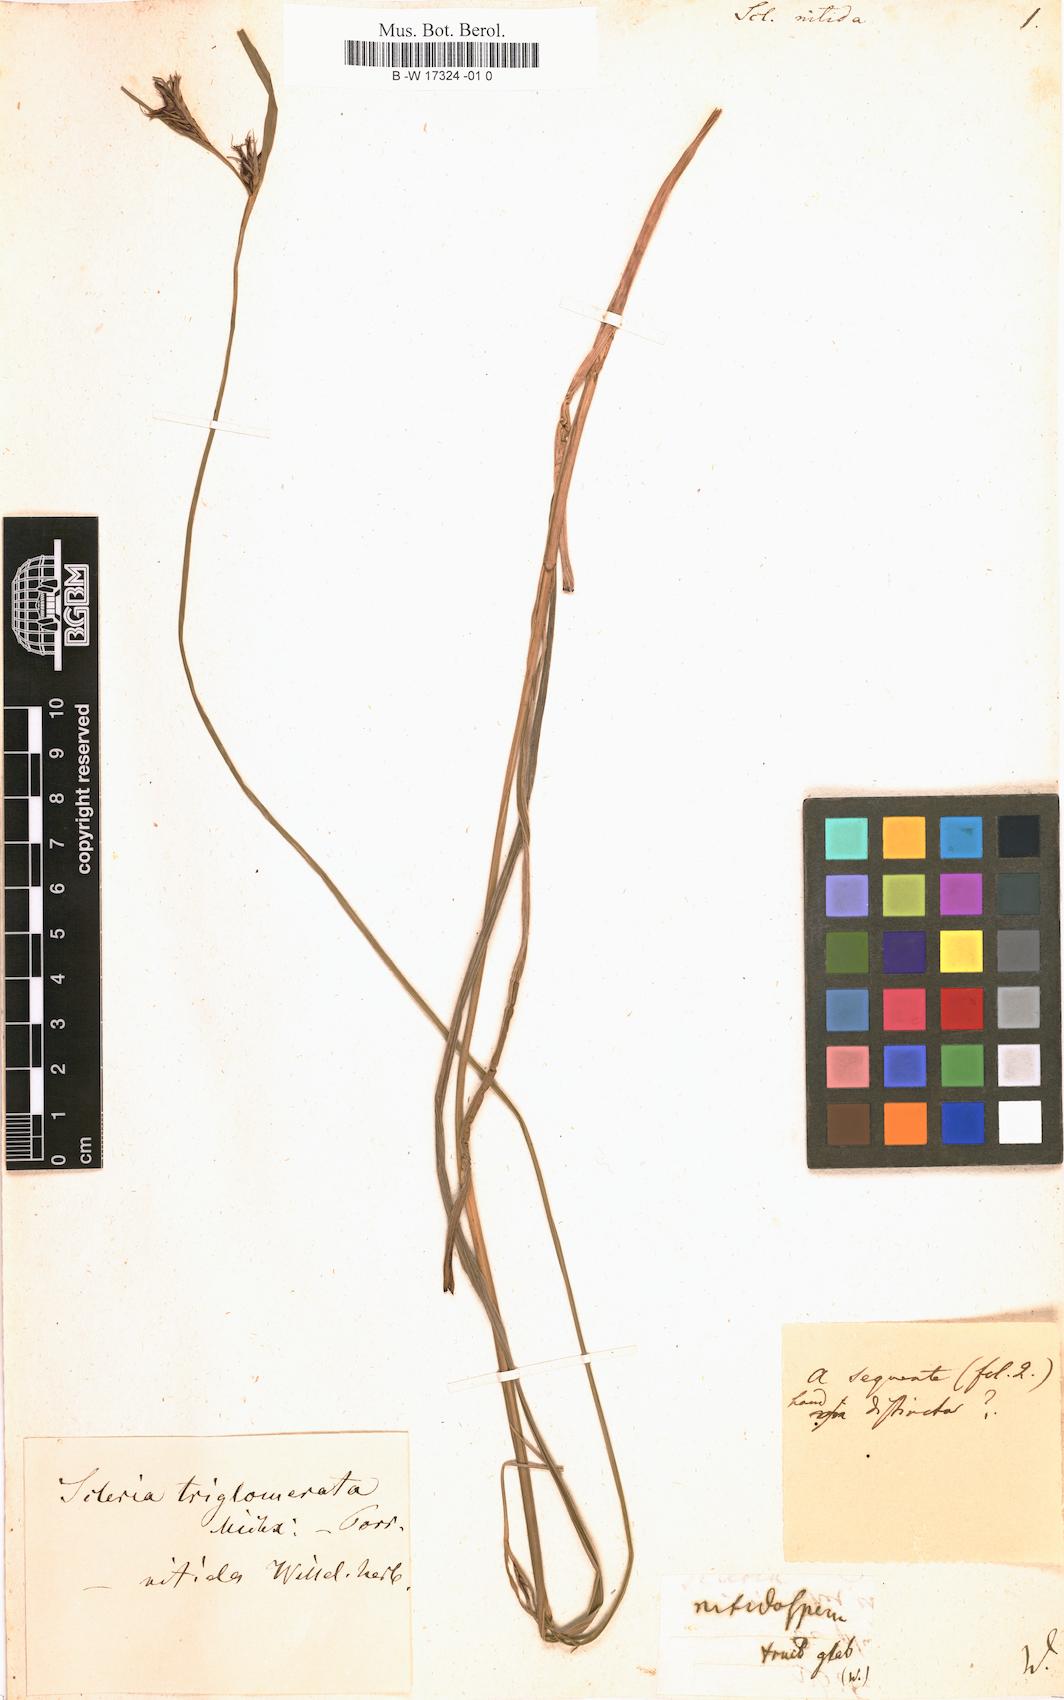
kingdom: Plantae
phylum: Tracheophyta
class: Liliopsida
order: Poales
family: Cyperaceae
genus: Scleria
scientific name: Scleria triglomerata
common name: Whip nutrush
